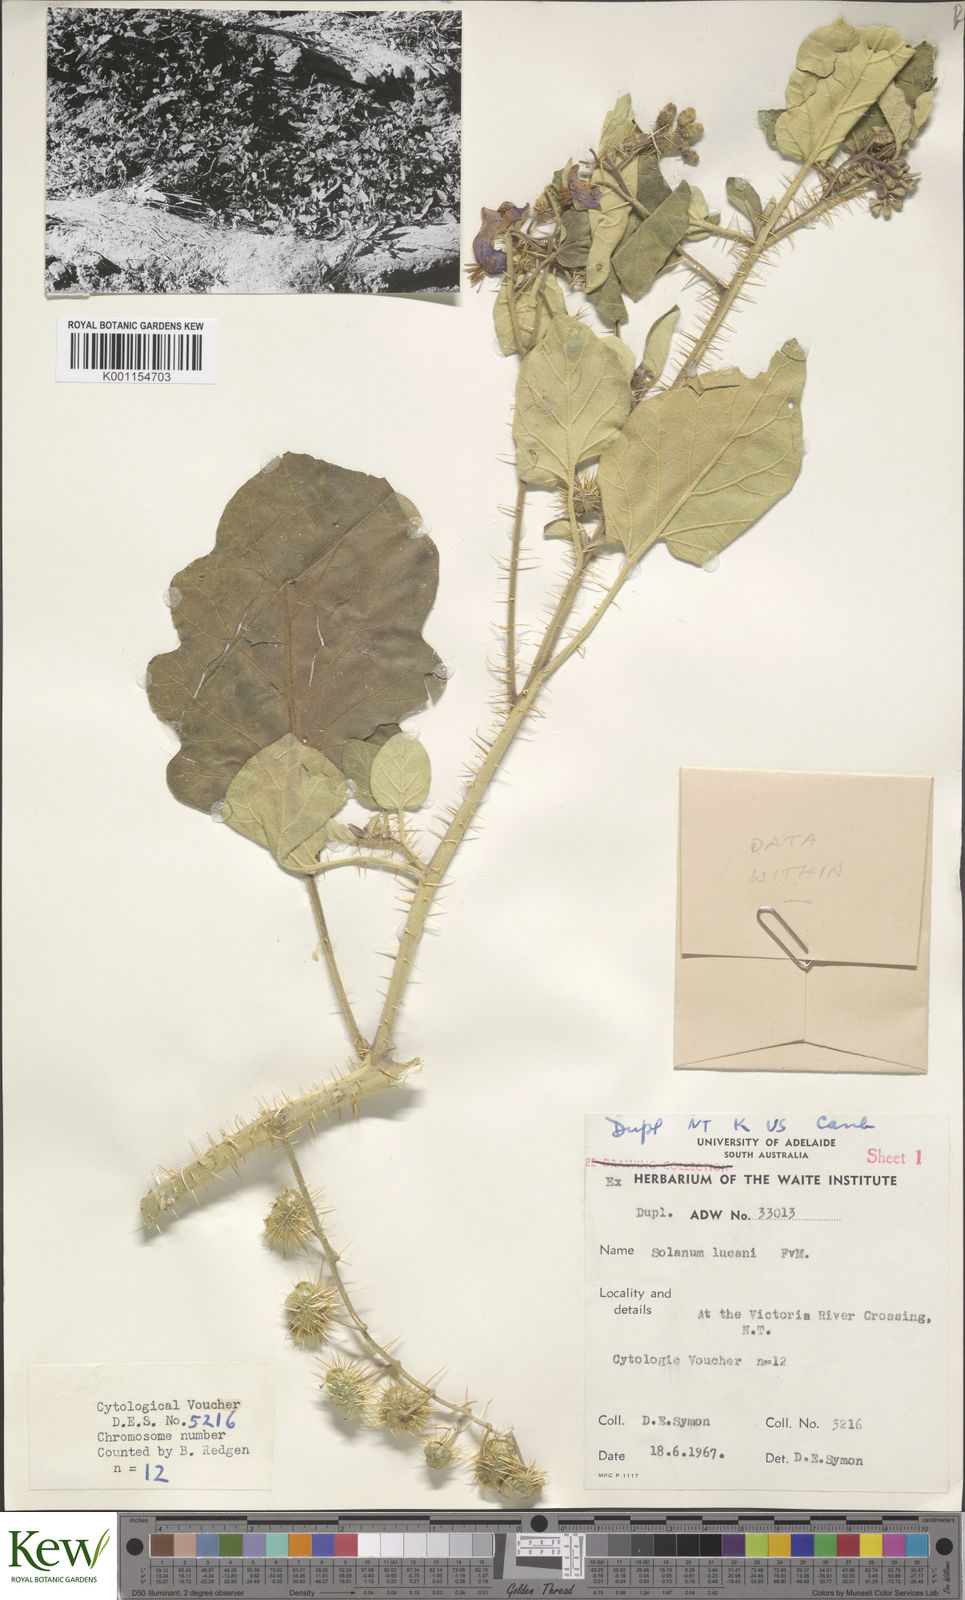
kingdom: Plantae
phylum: Tracheophyta
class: Magnoliopsida
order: Solanales
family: Solanaceae
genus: Solanum
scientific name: Solanum lucani
